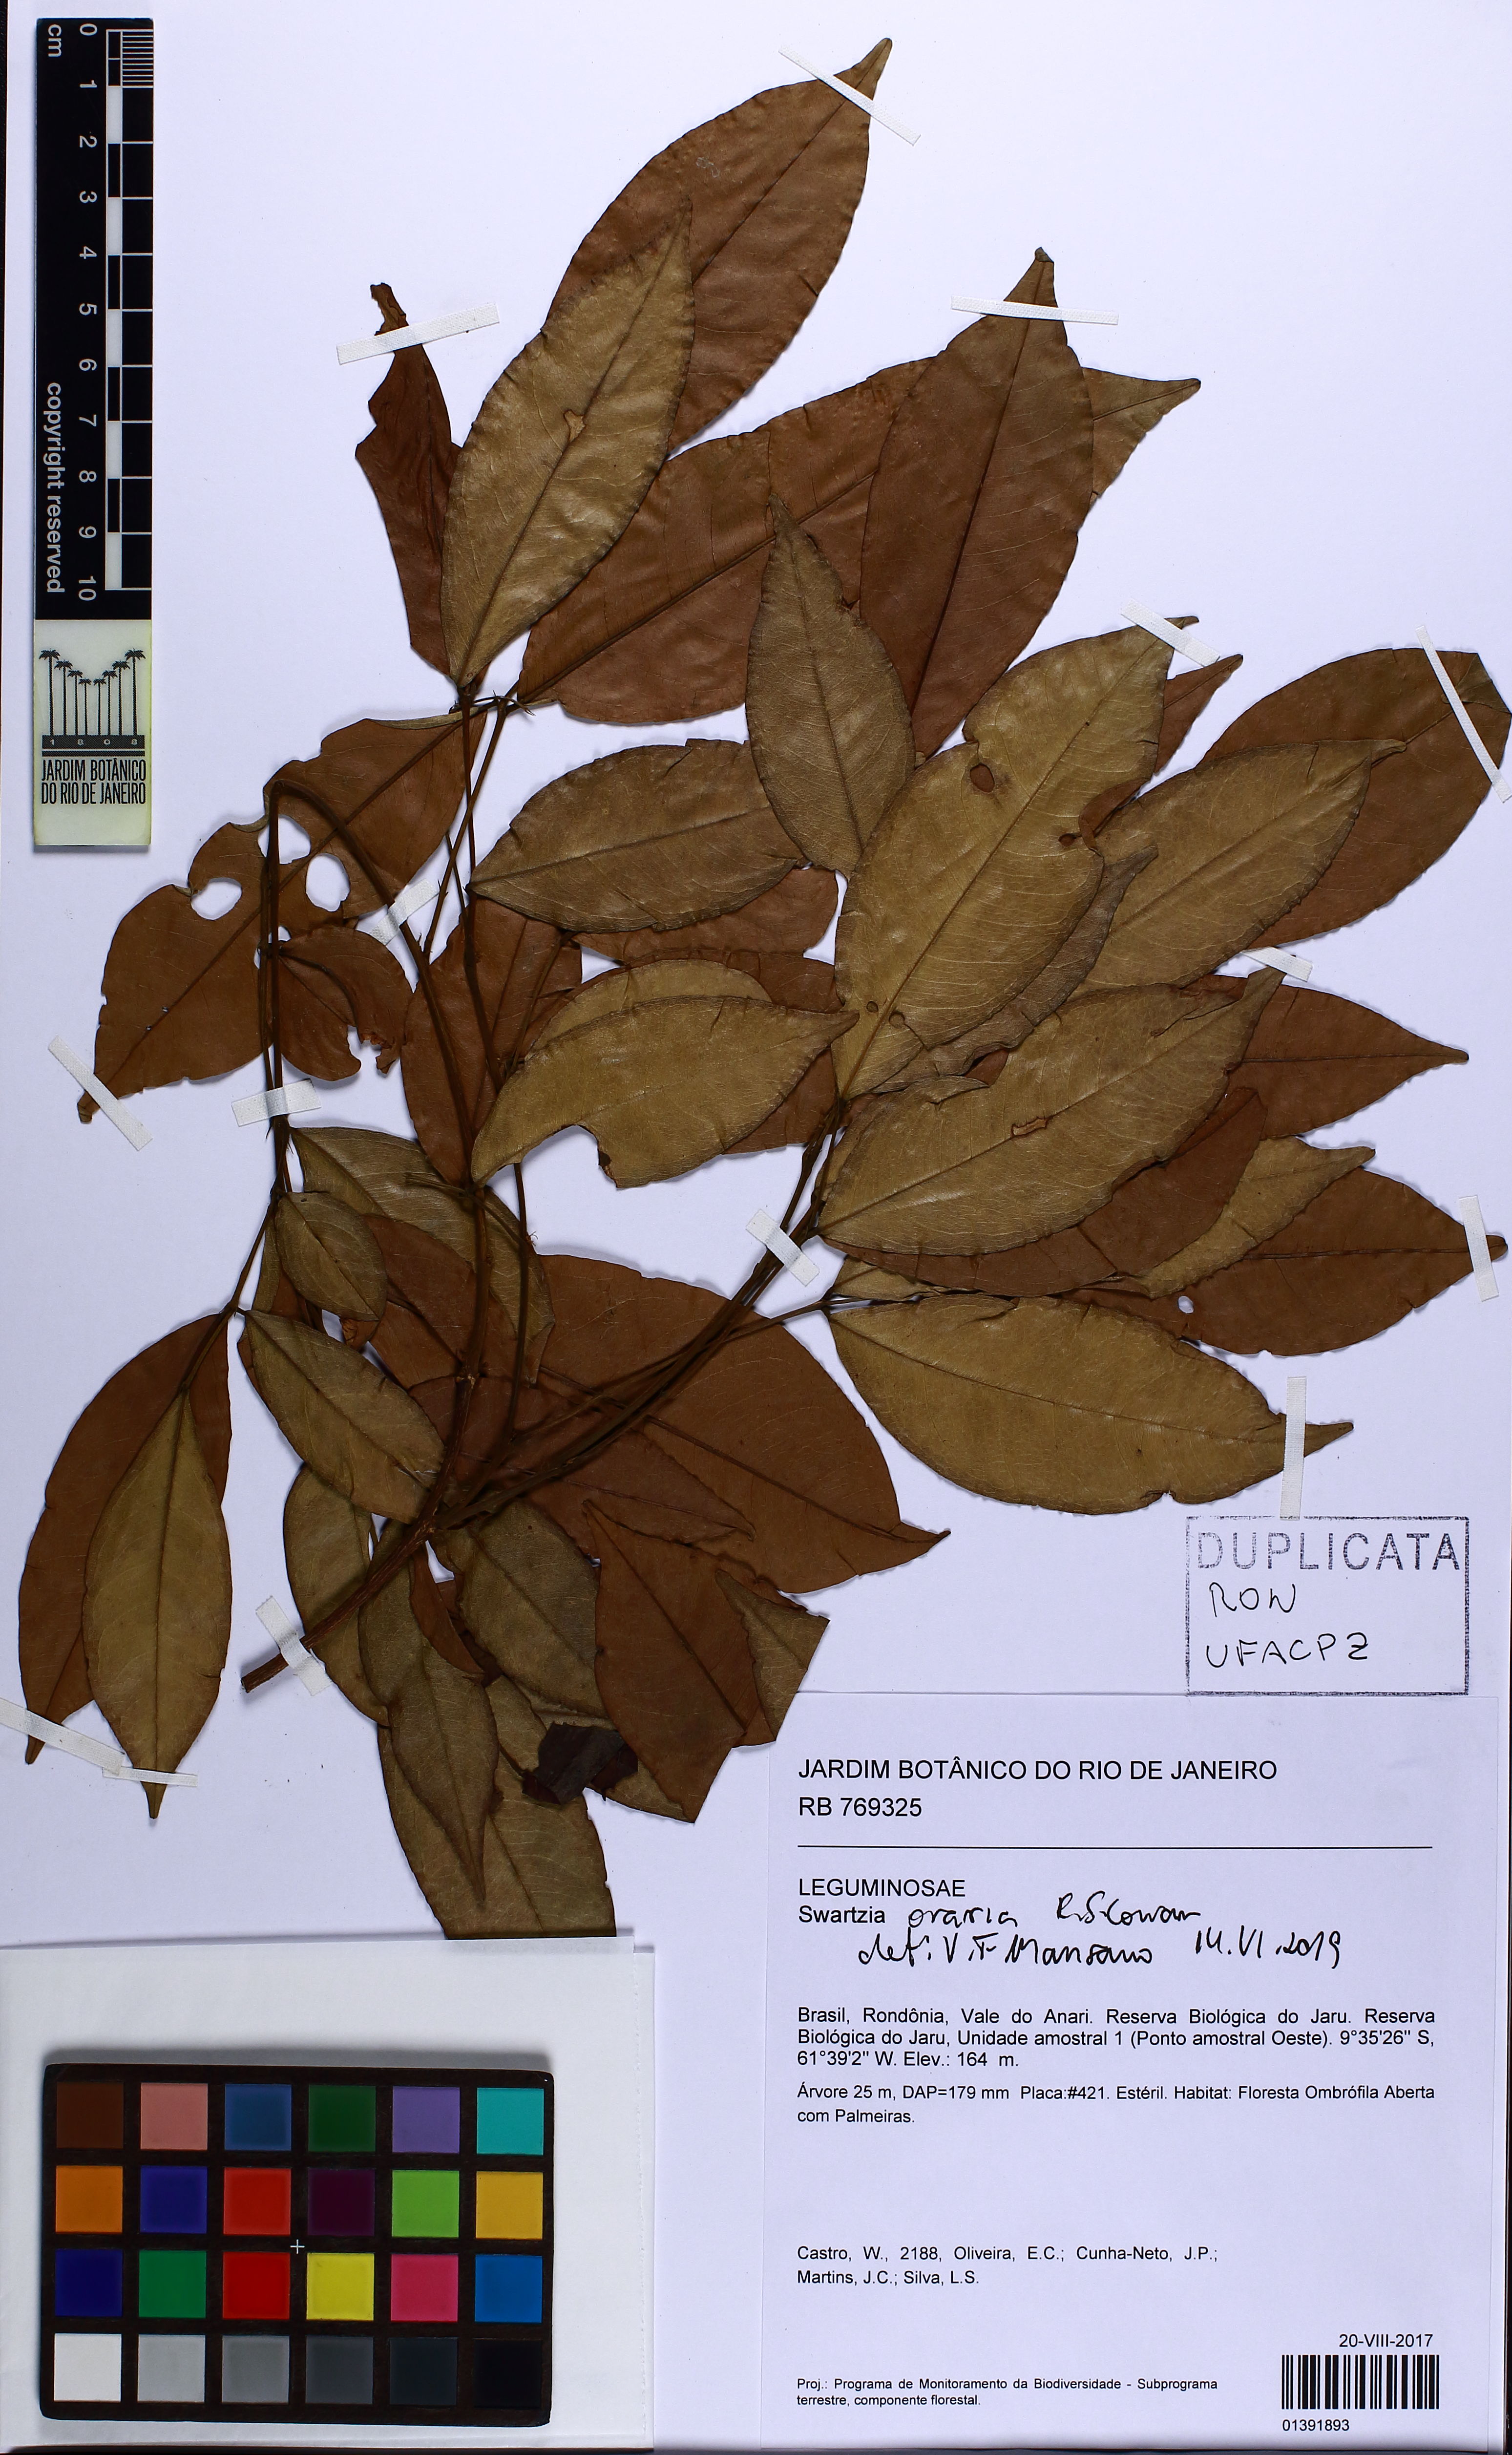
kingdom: Plantae
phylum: Tracheophyta
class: Magnoliopsida
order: Fabales
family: Fabaceae
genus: Swartzia
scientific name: Swartzia oraria
